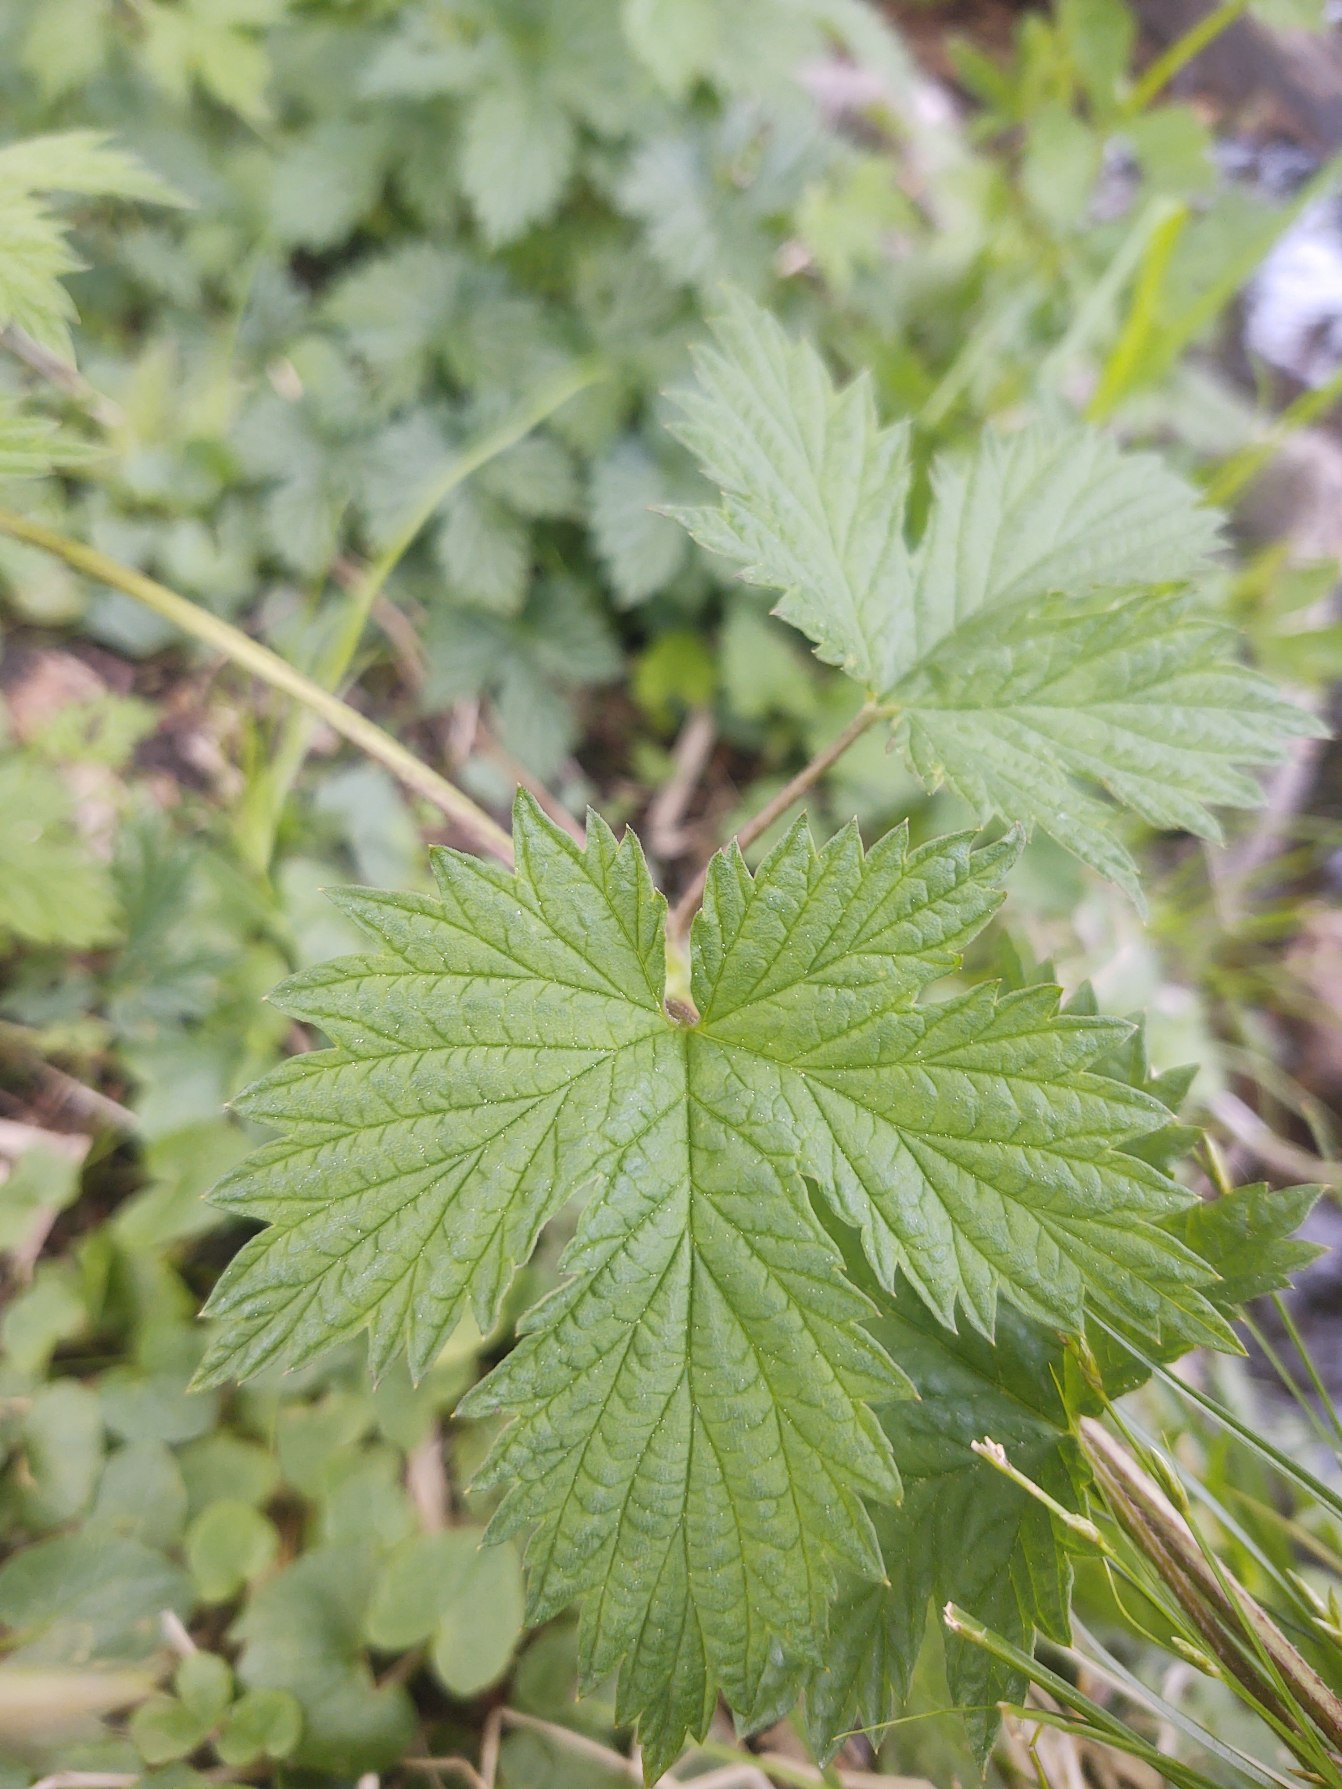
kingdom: Plantae
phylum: Tracheophyta
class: Magnoliopsida
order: Rosales
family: Cannabaceae
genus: Humulus
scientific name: Humulus lupulus
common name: Humle
